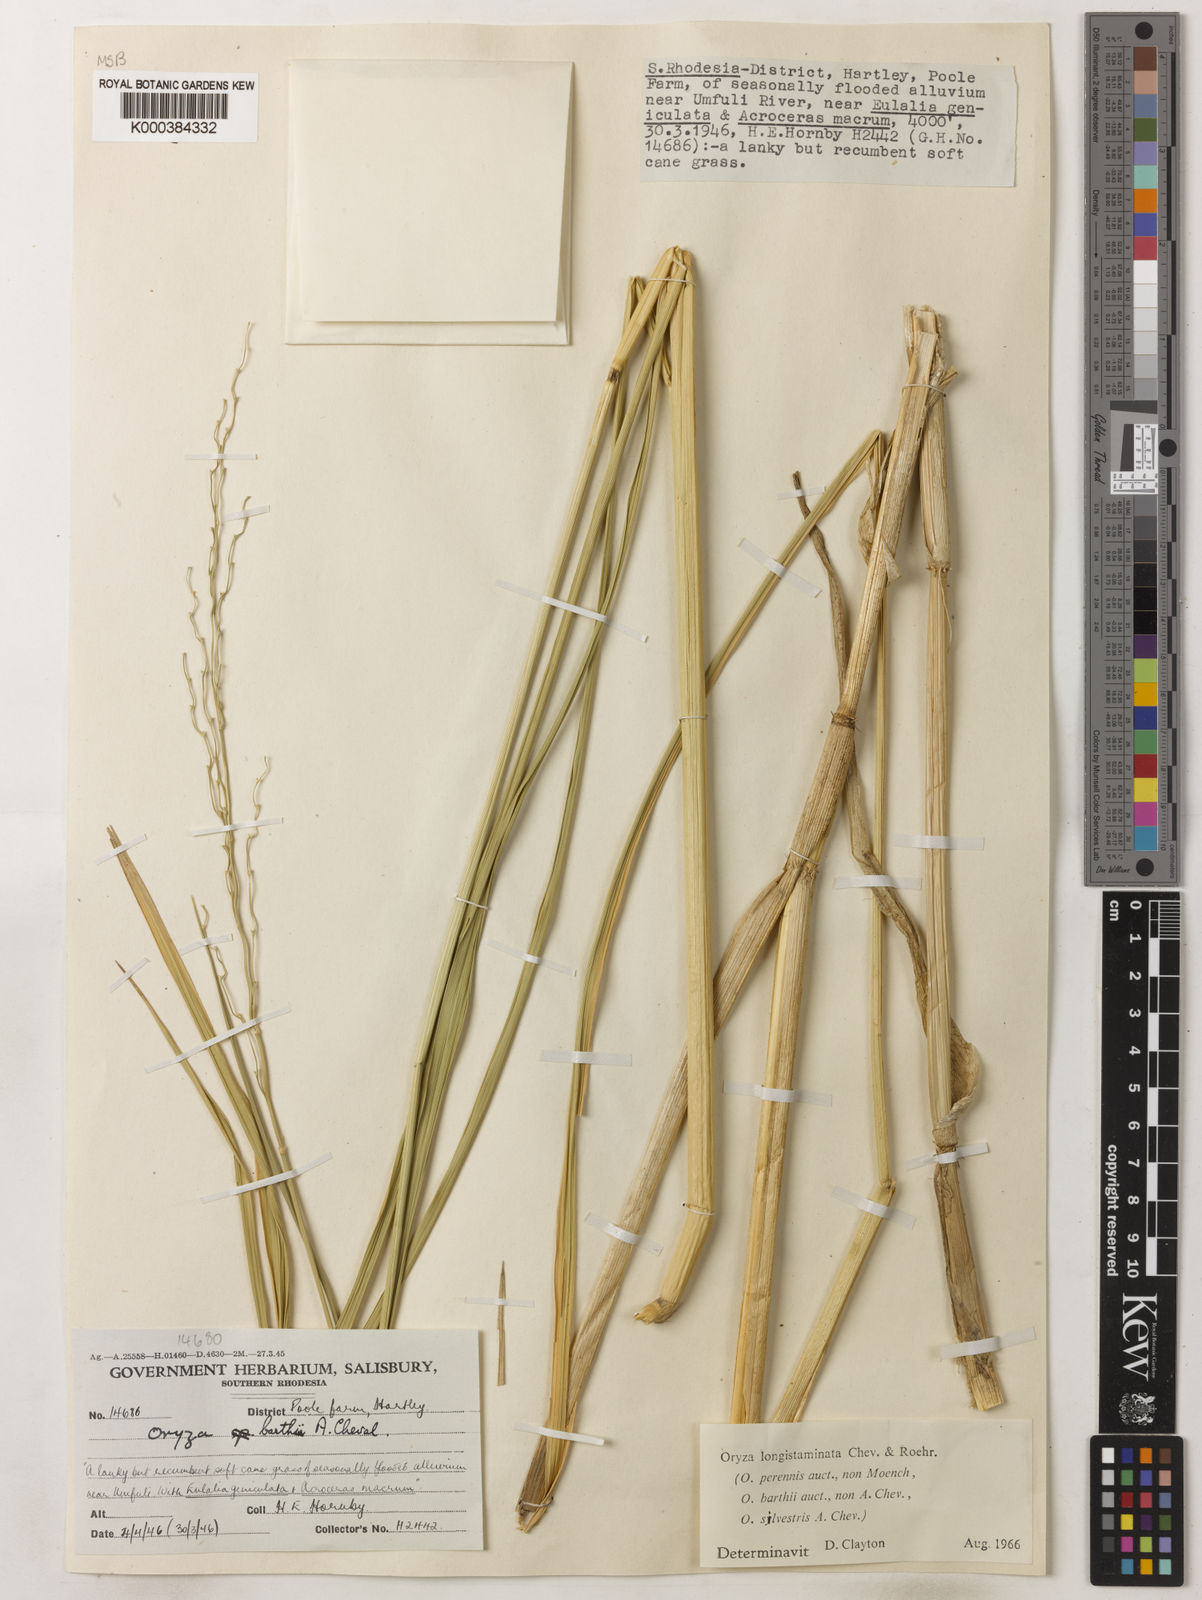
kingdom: Plantae
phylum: Tracheophyta
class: Liliopsida
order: Poales
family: Poaceae
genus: Oryza
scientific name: Oryza longistaminata
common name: Red rice
